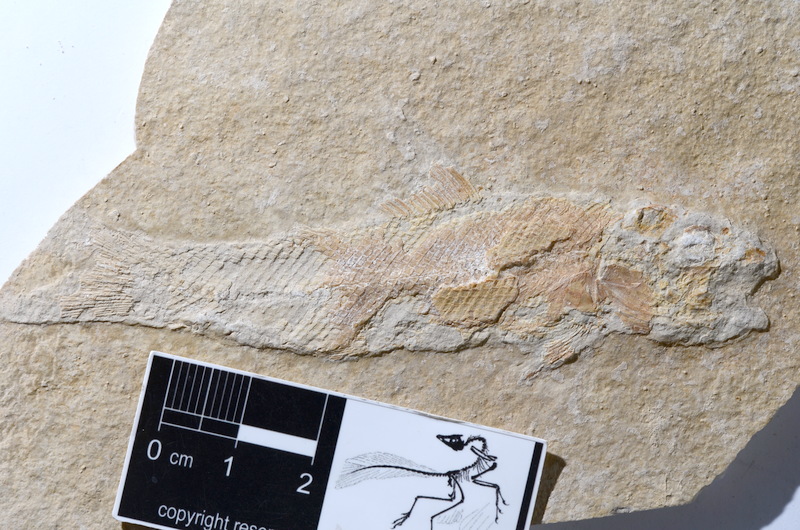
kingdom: Animalia
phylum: Chordata
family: Ophiopsiellidae
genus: Ophiopsiella
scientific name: Ophiopsiella procera
